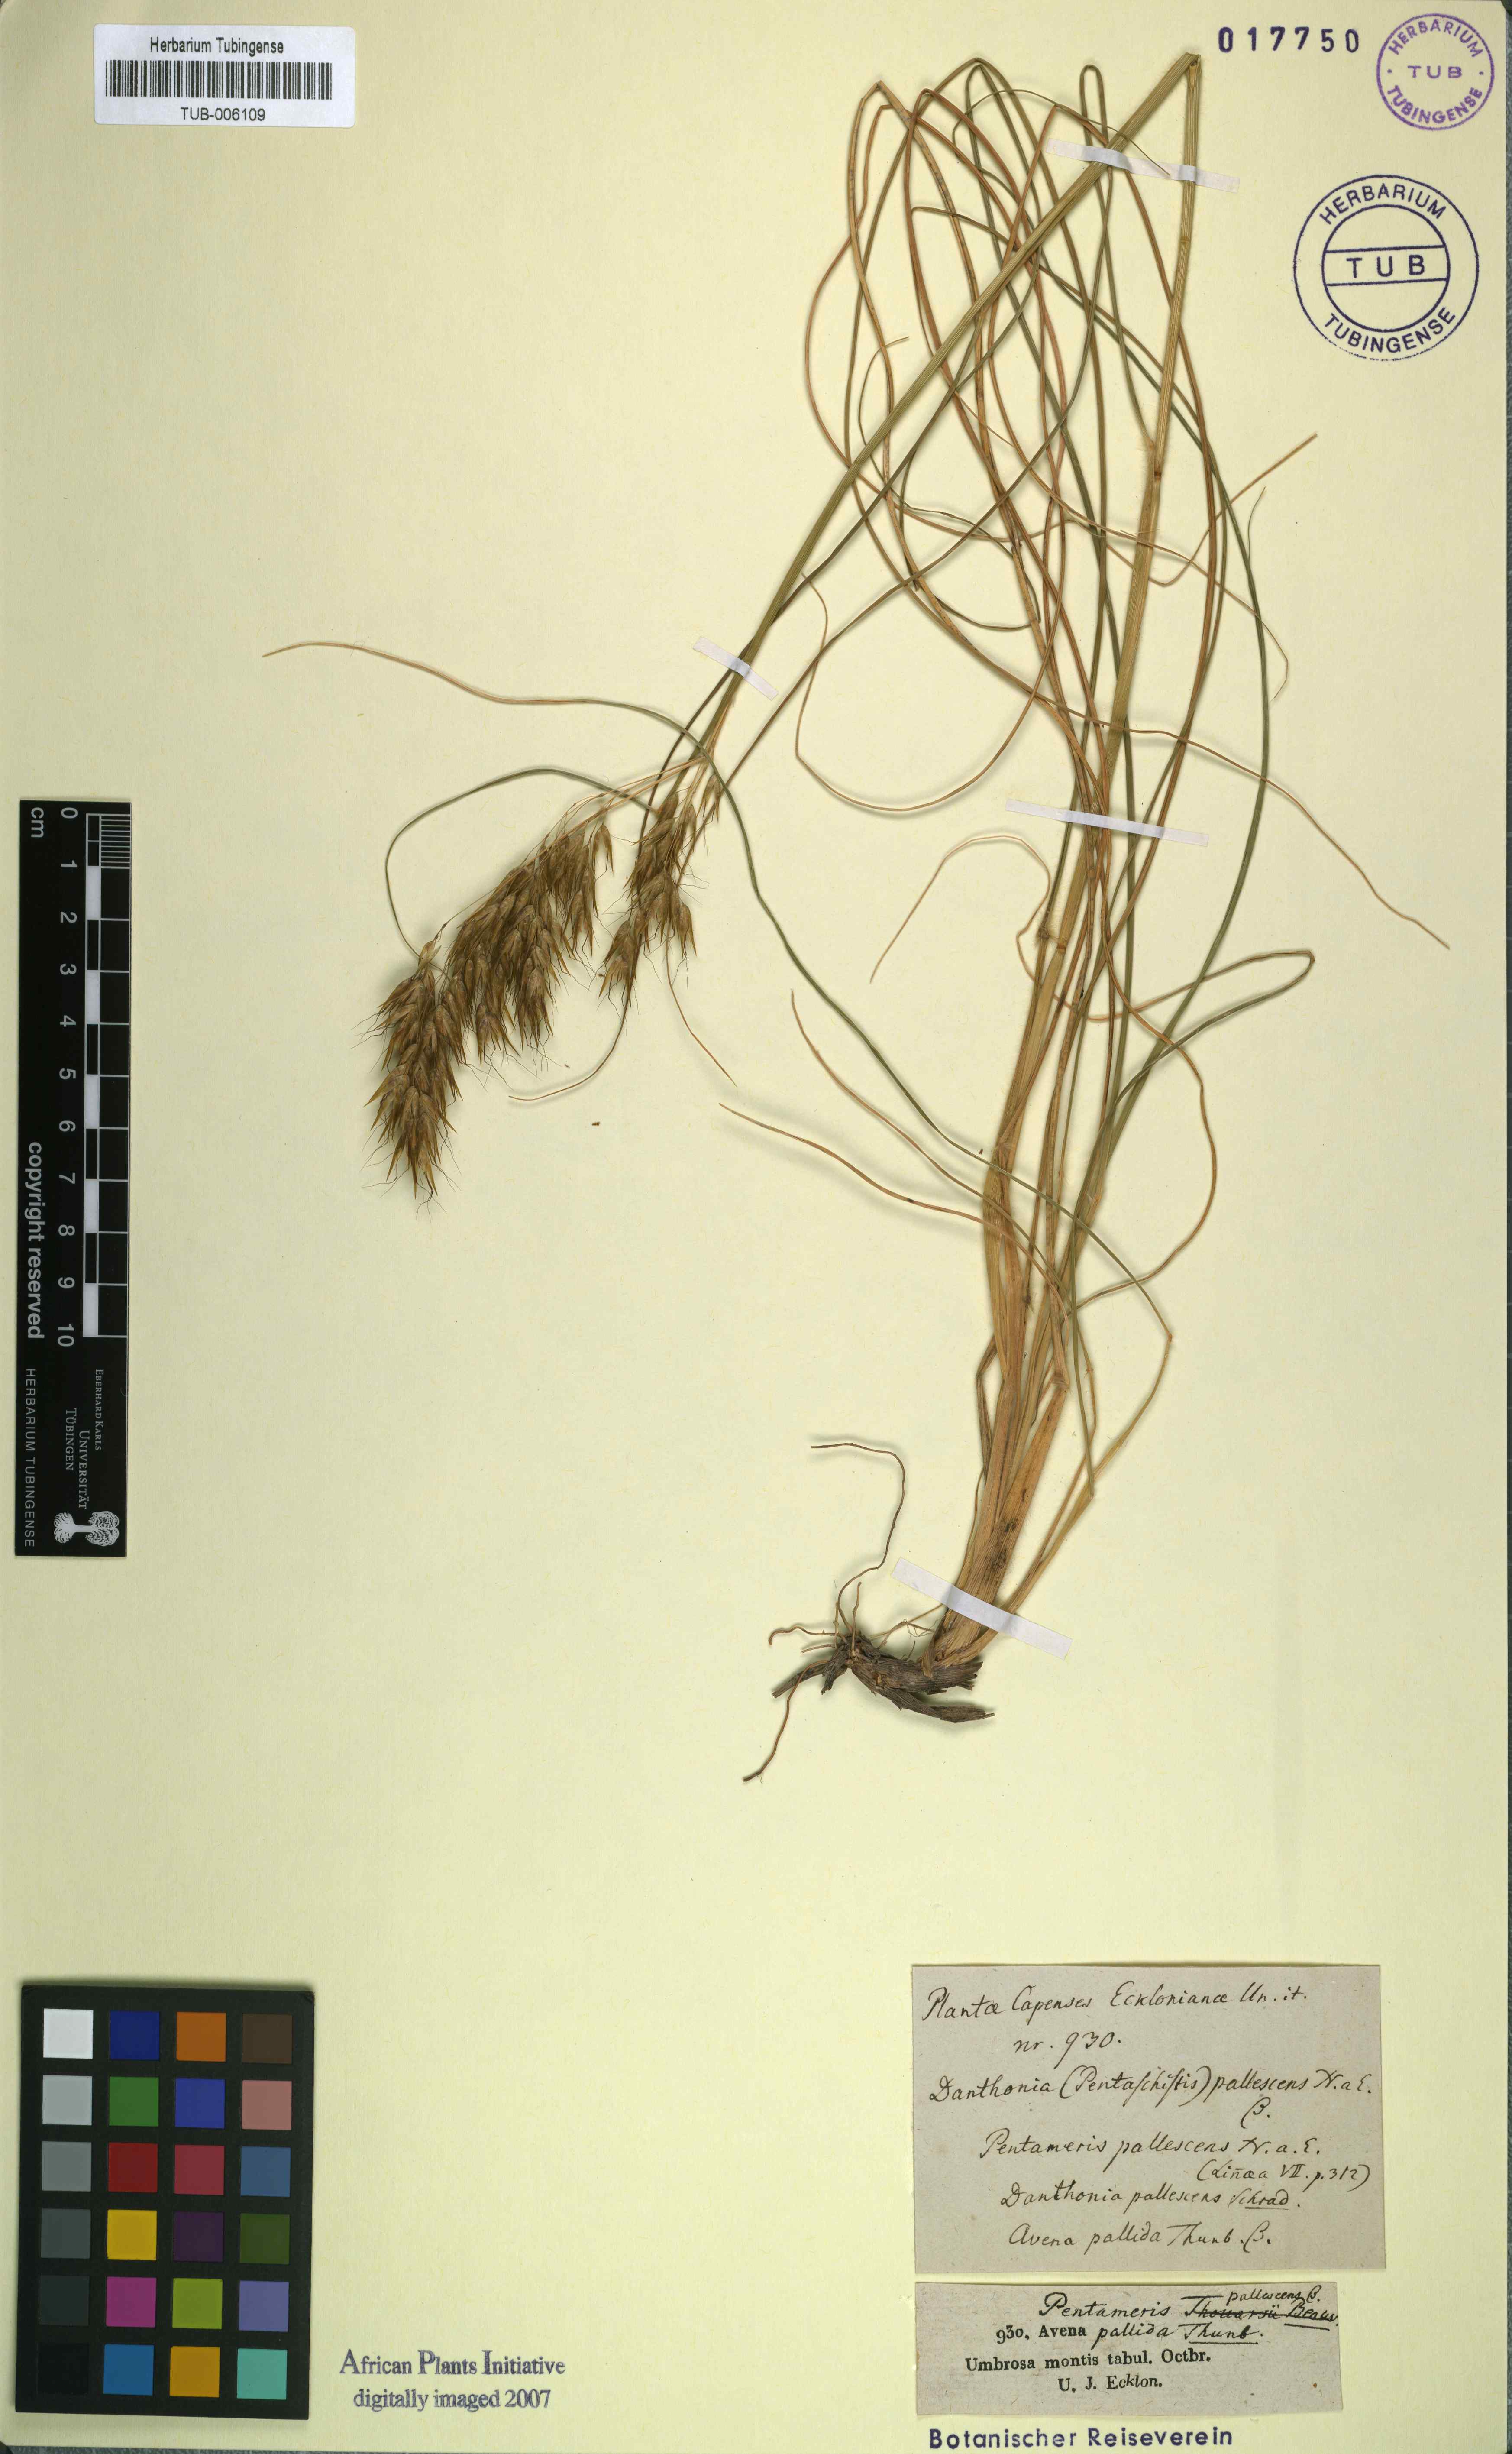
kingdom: Plantae
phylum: Tracheophyta
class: Liliopsida
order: Poales
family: Poaceae
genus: Pentameris
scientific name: Pentameris pallescens
